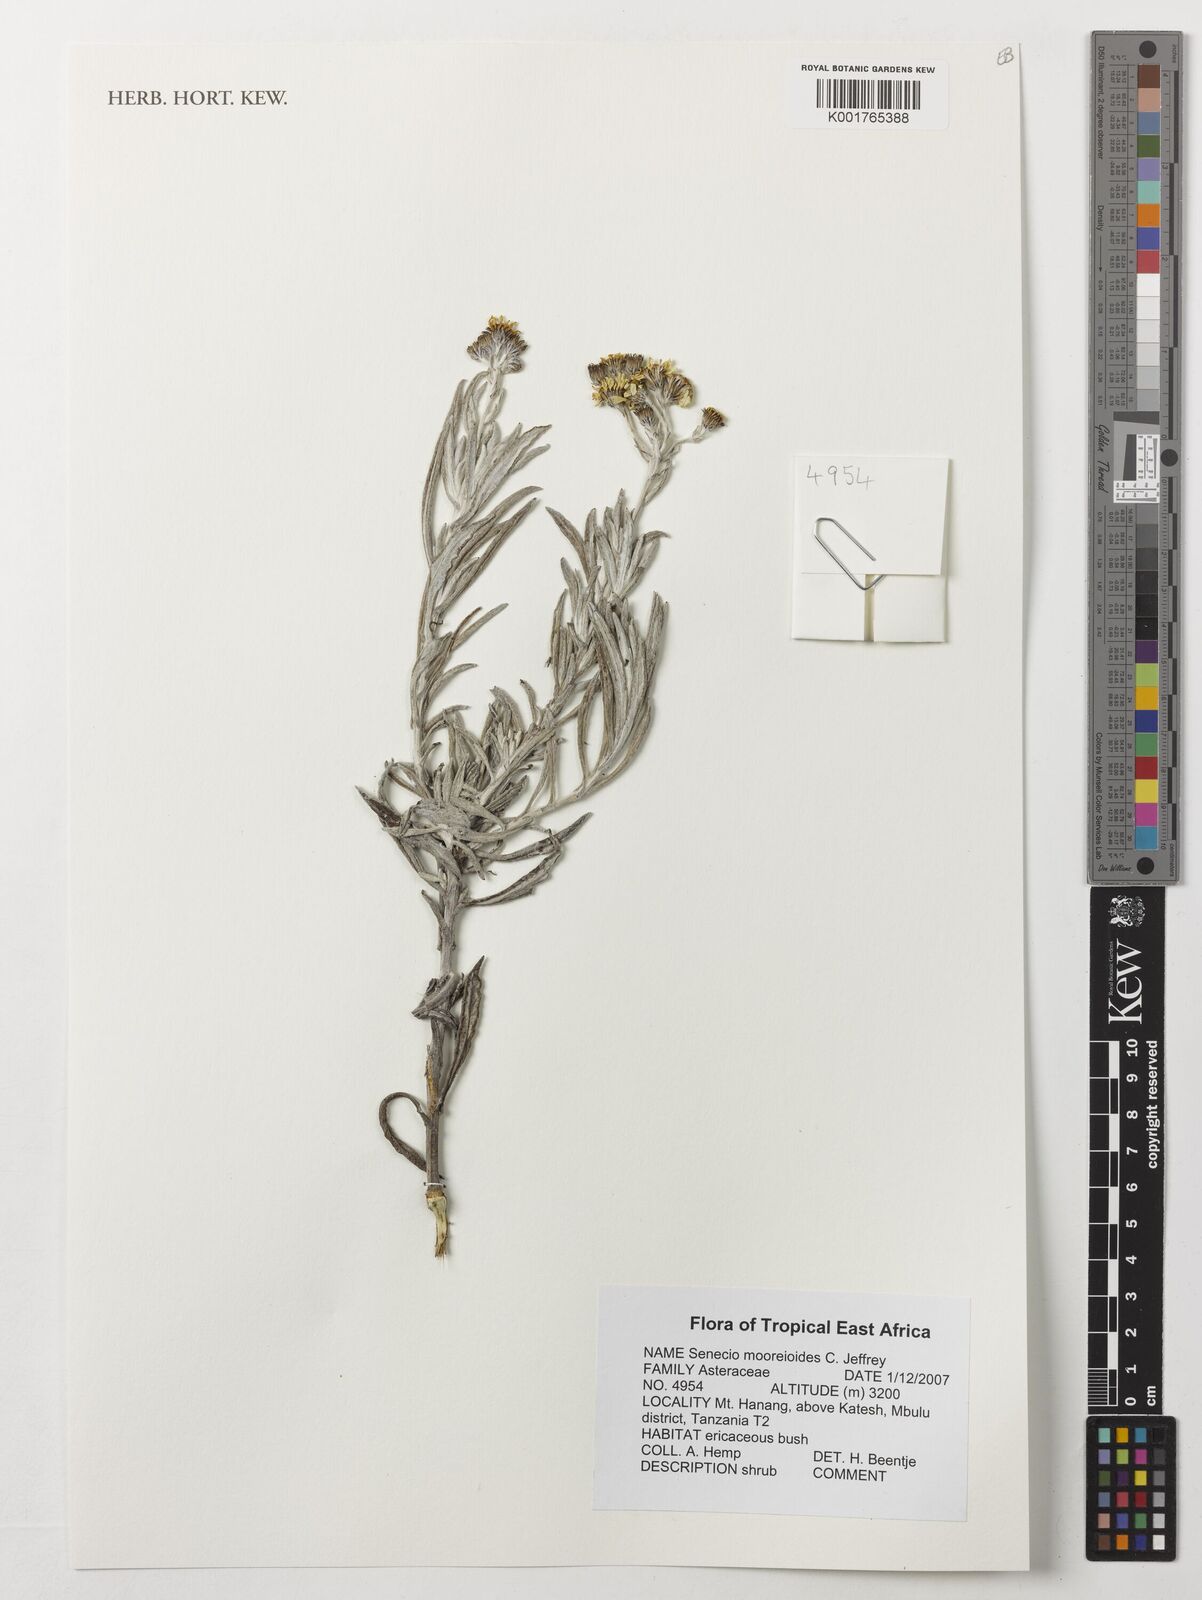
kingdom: Plantae
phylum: Tracheophyta
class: Magnoliopsida
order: Asterales
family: Asteraceae
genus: Senecio
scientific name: Senecio mooreioides
